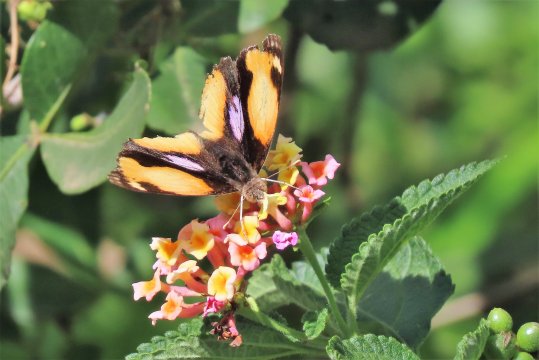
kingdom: Animalia
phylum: Arthropoda
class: Insecta
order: Lepidoptera
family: Nymphalidae
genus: Junonia
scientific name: Junonia hierta
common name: Yellow Pansy
